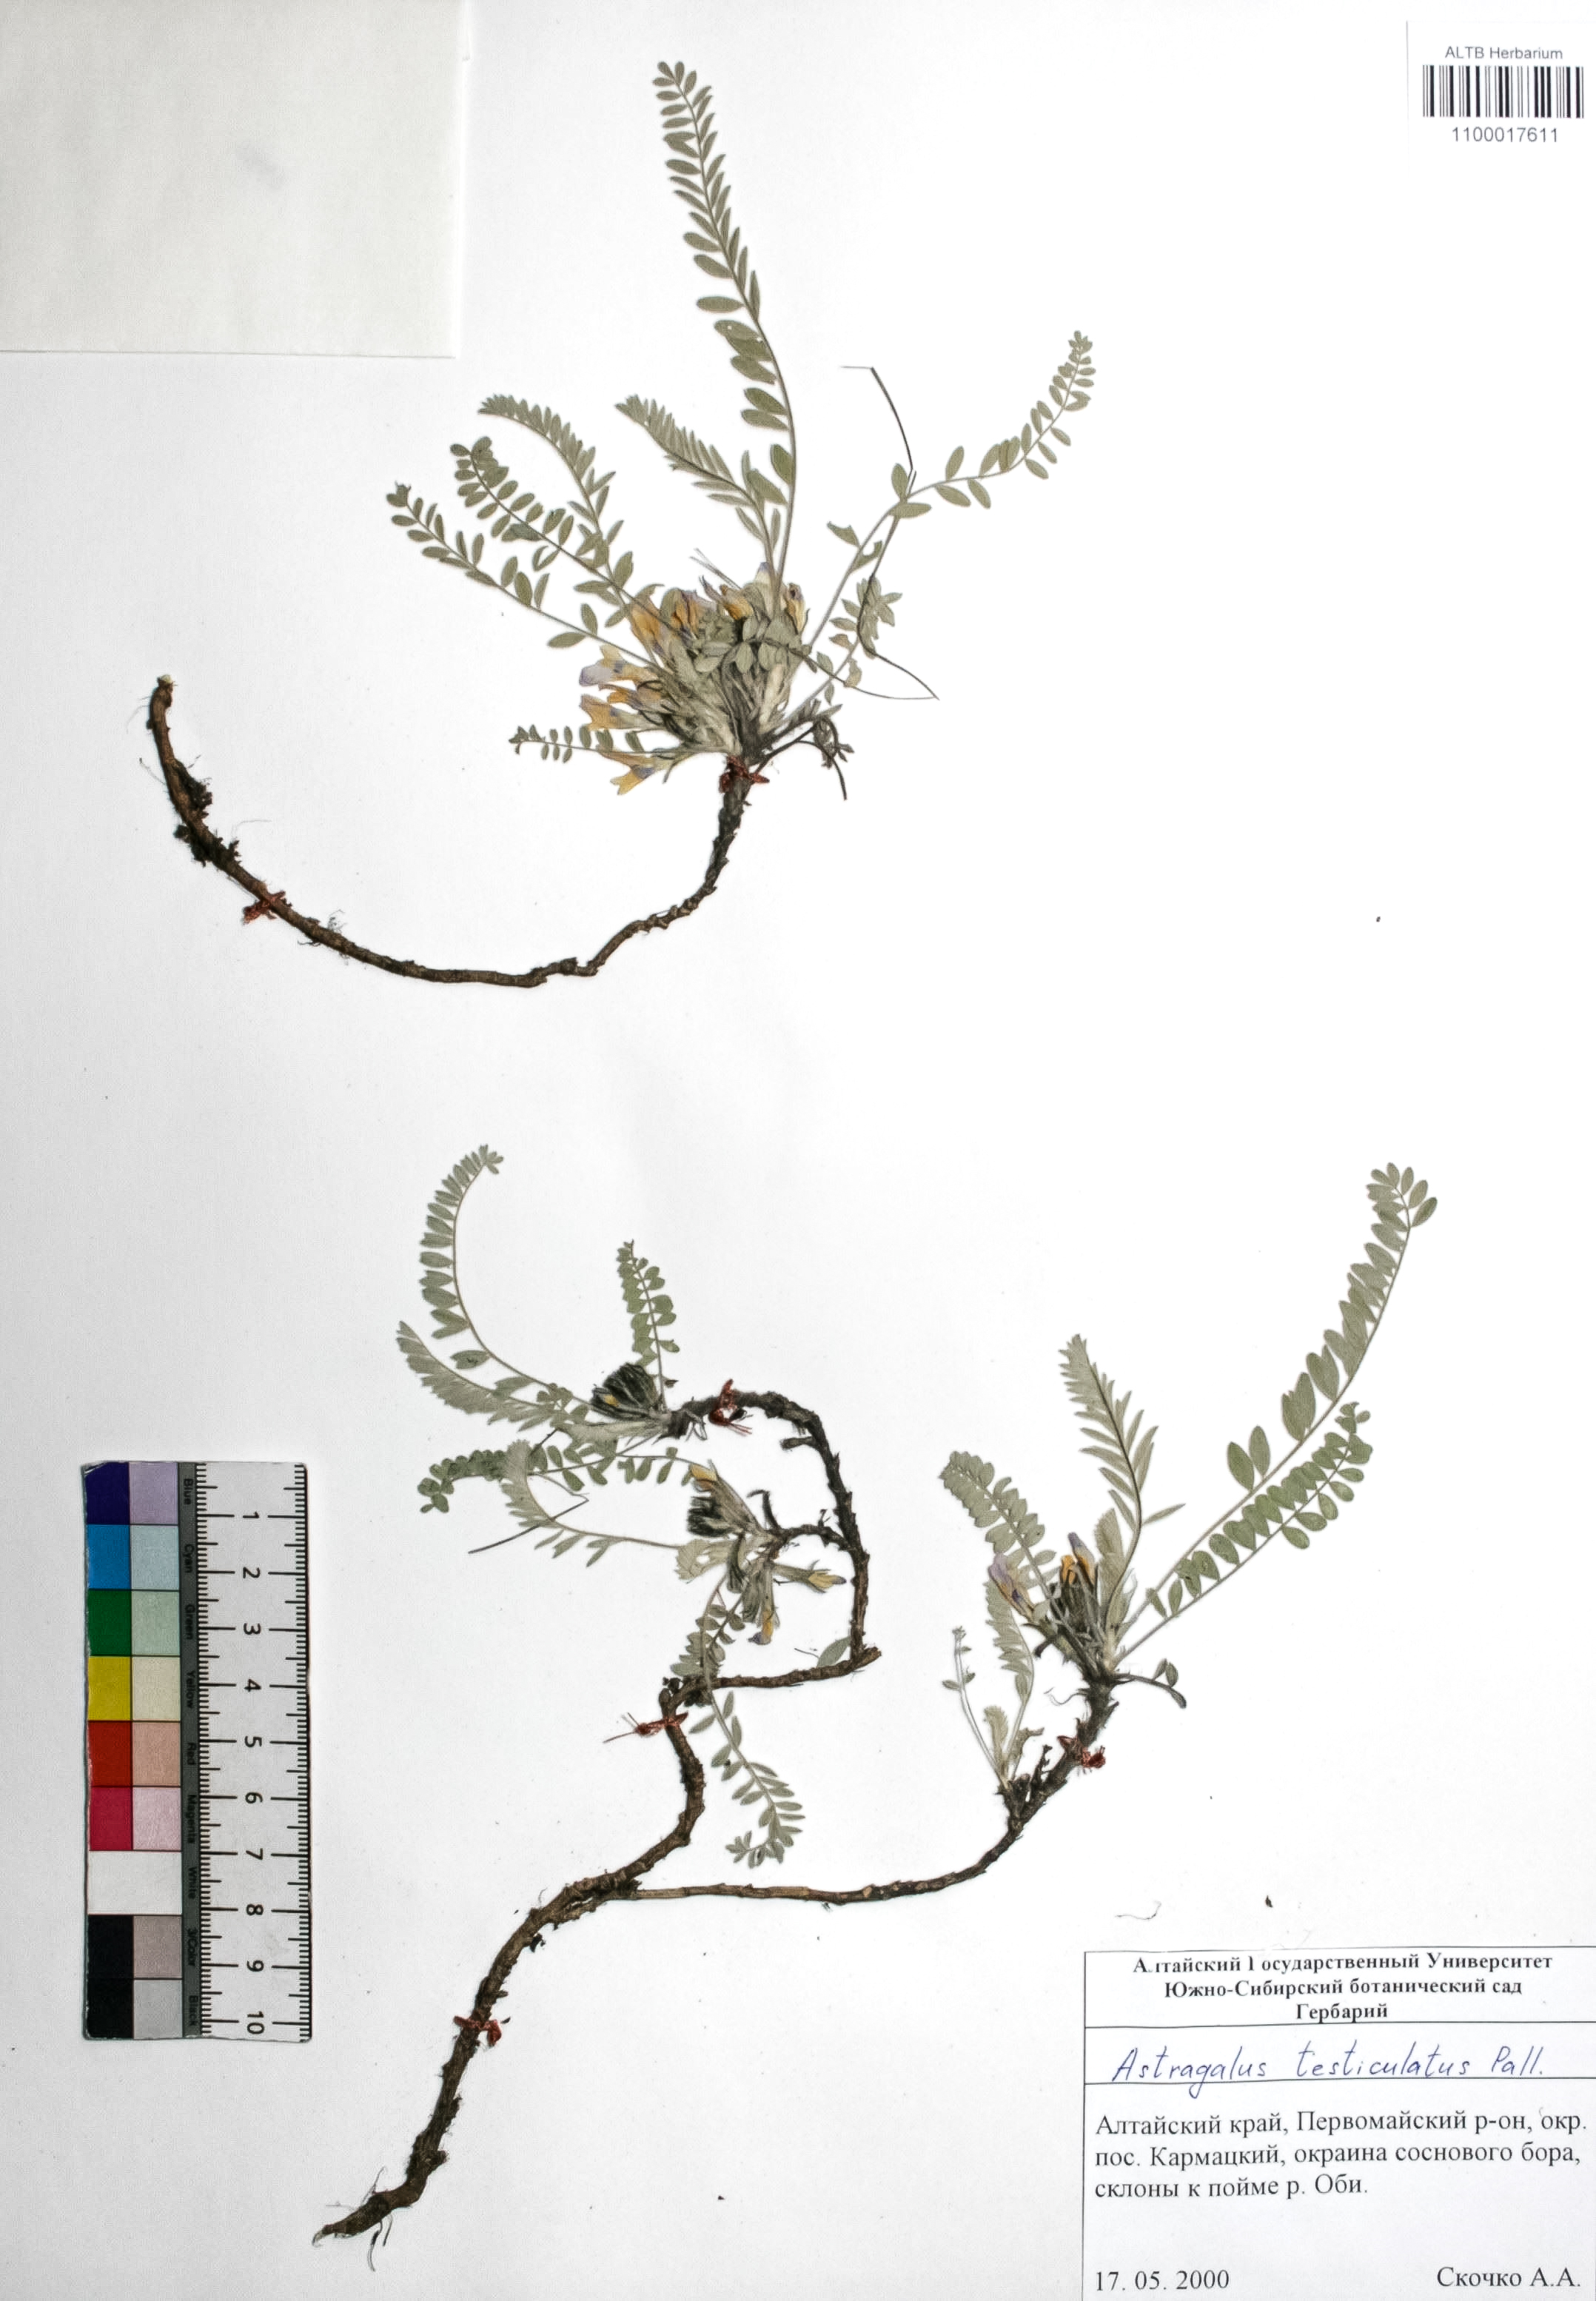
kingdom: Plantae
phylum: Tracheophyta
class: Magnoliopsida
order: Fabales
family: Fabaceae
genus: Astragalus
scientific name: Astragalus testiculatus
